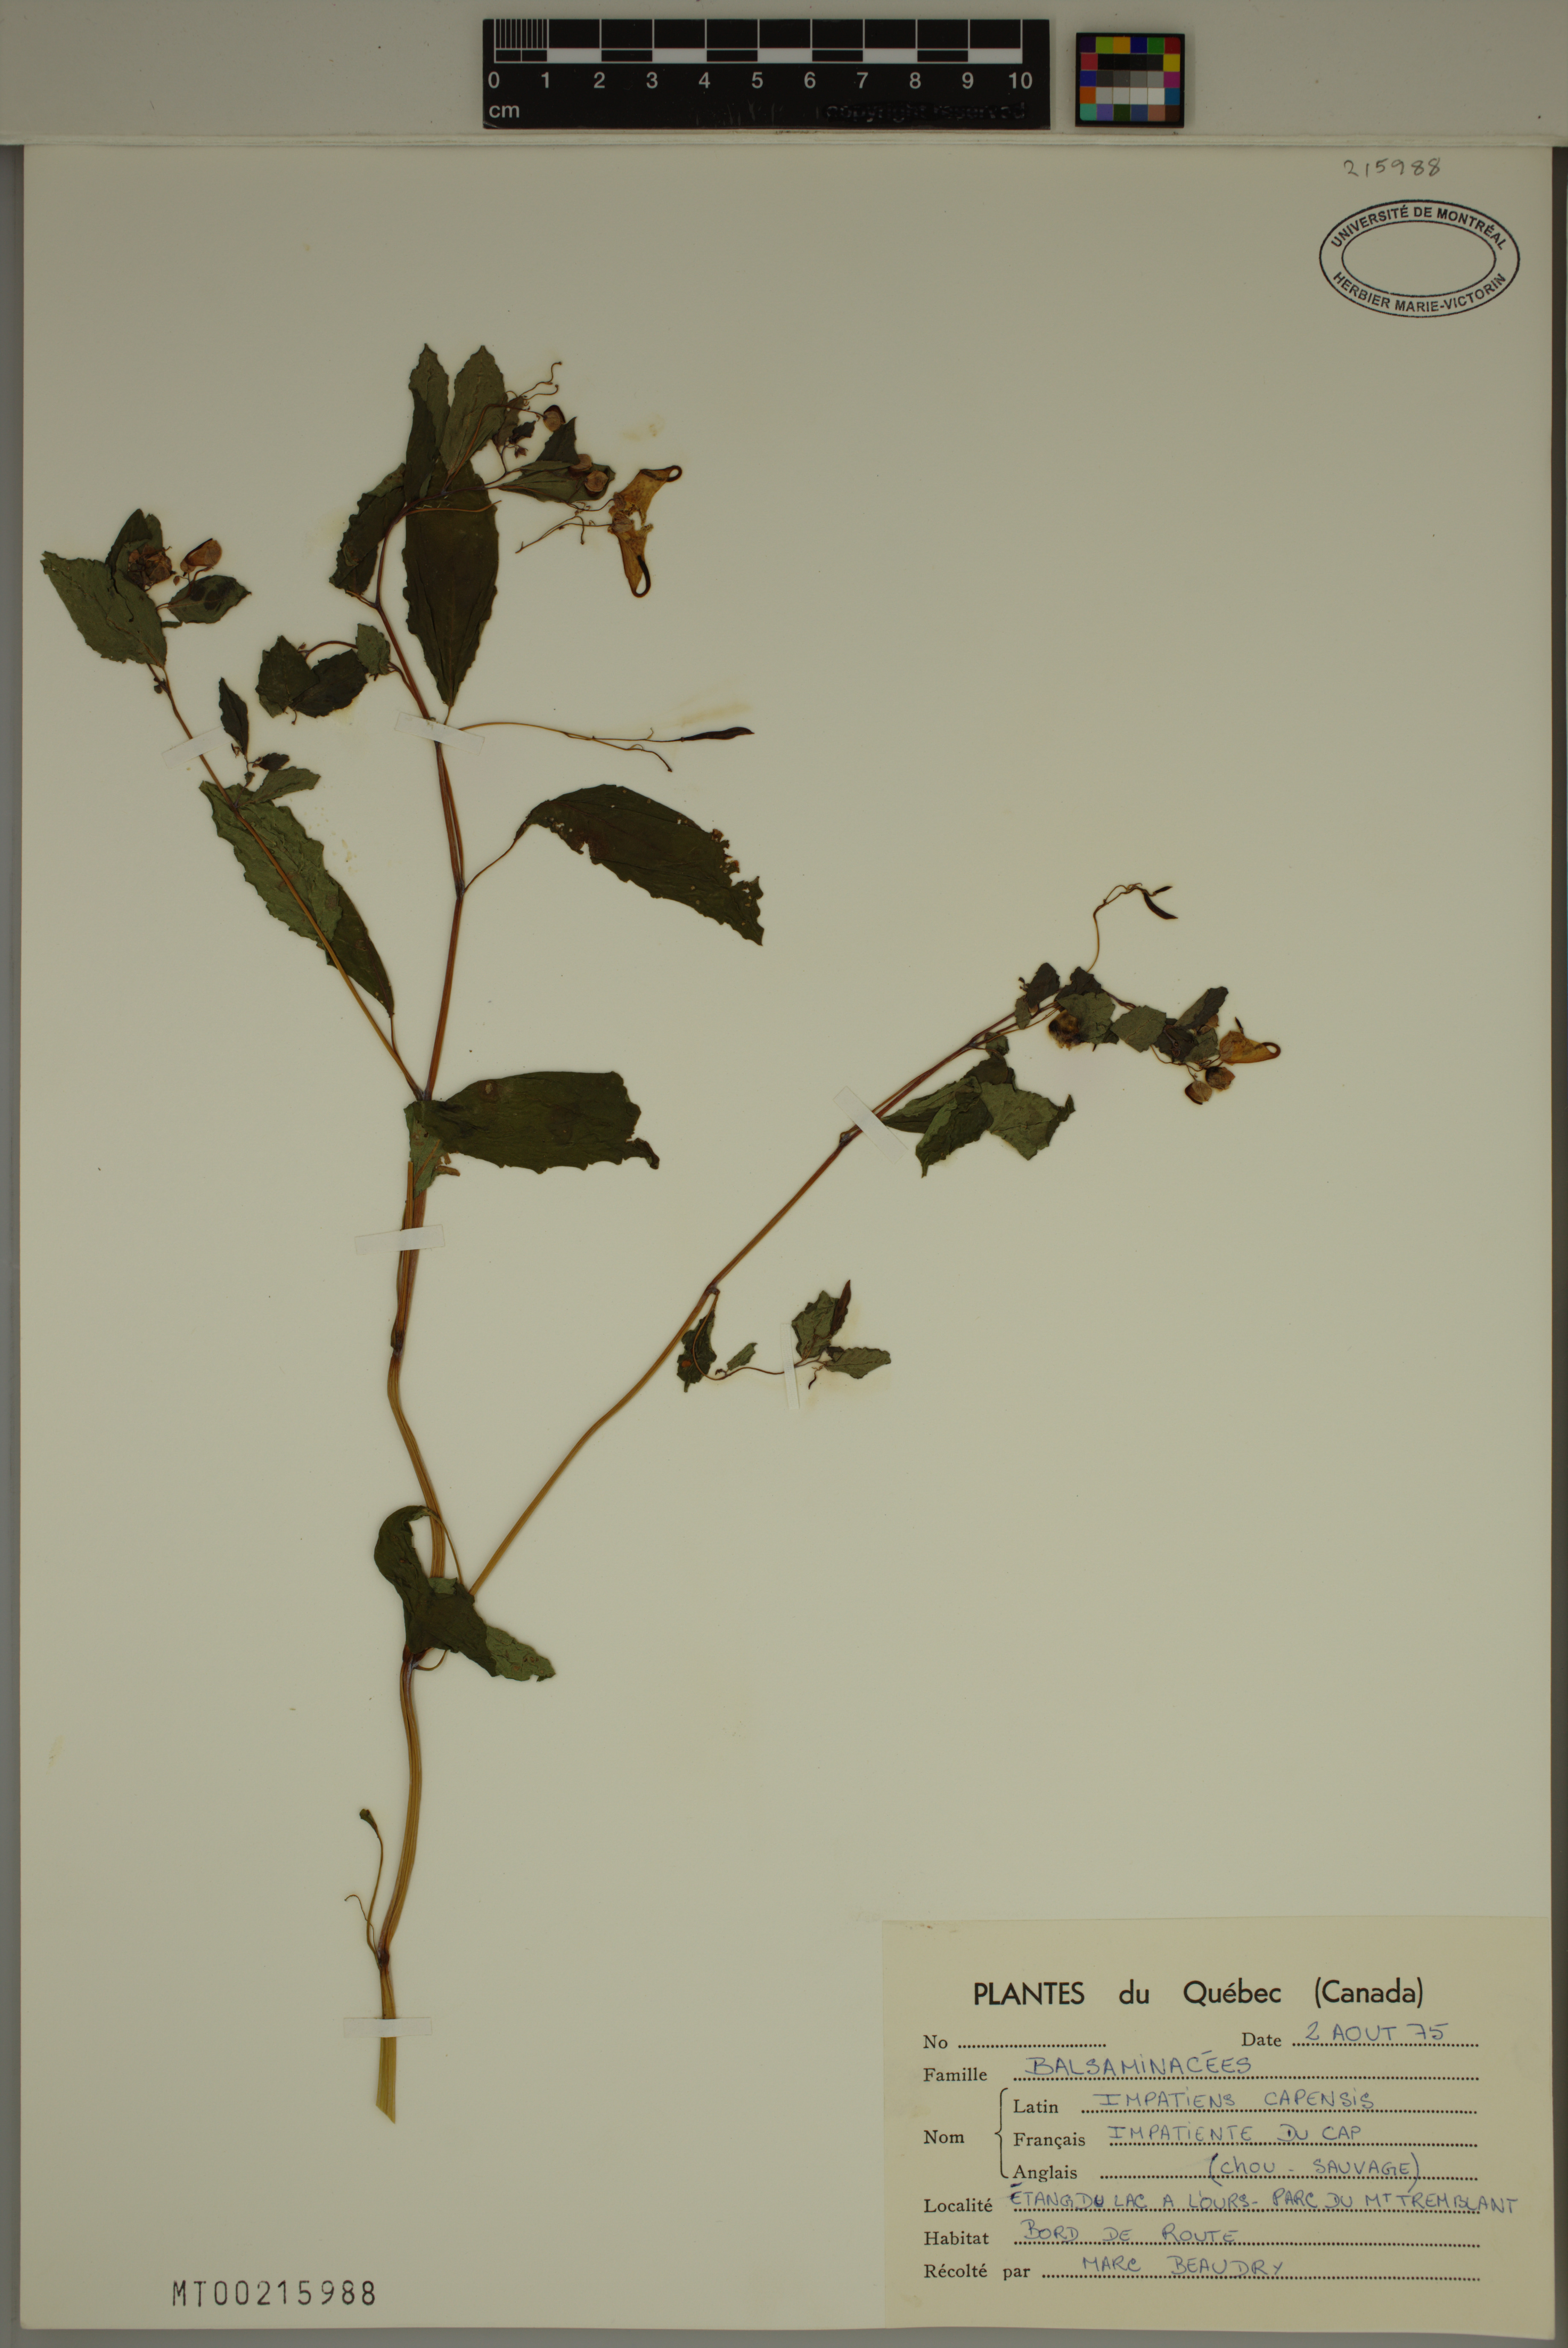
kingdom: Plantae
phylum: Tracheophyta
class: Magnoliopsida
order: Ericales
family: Balsaminaceae
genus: Impatiens
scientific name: Impatiens capensis
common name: Orange balsam
